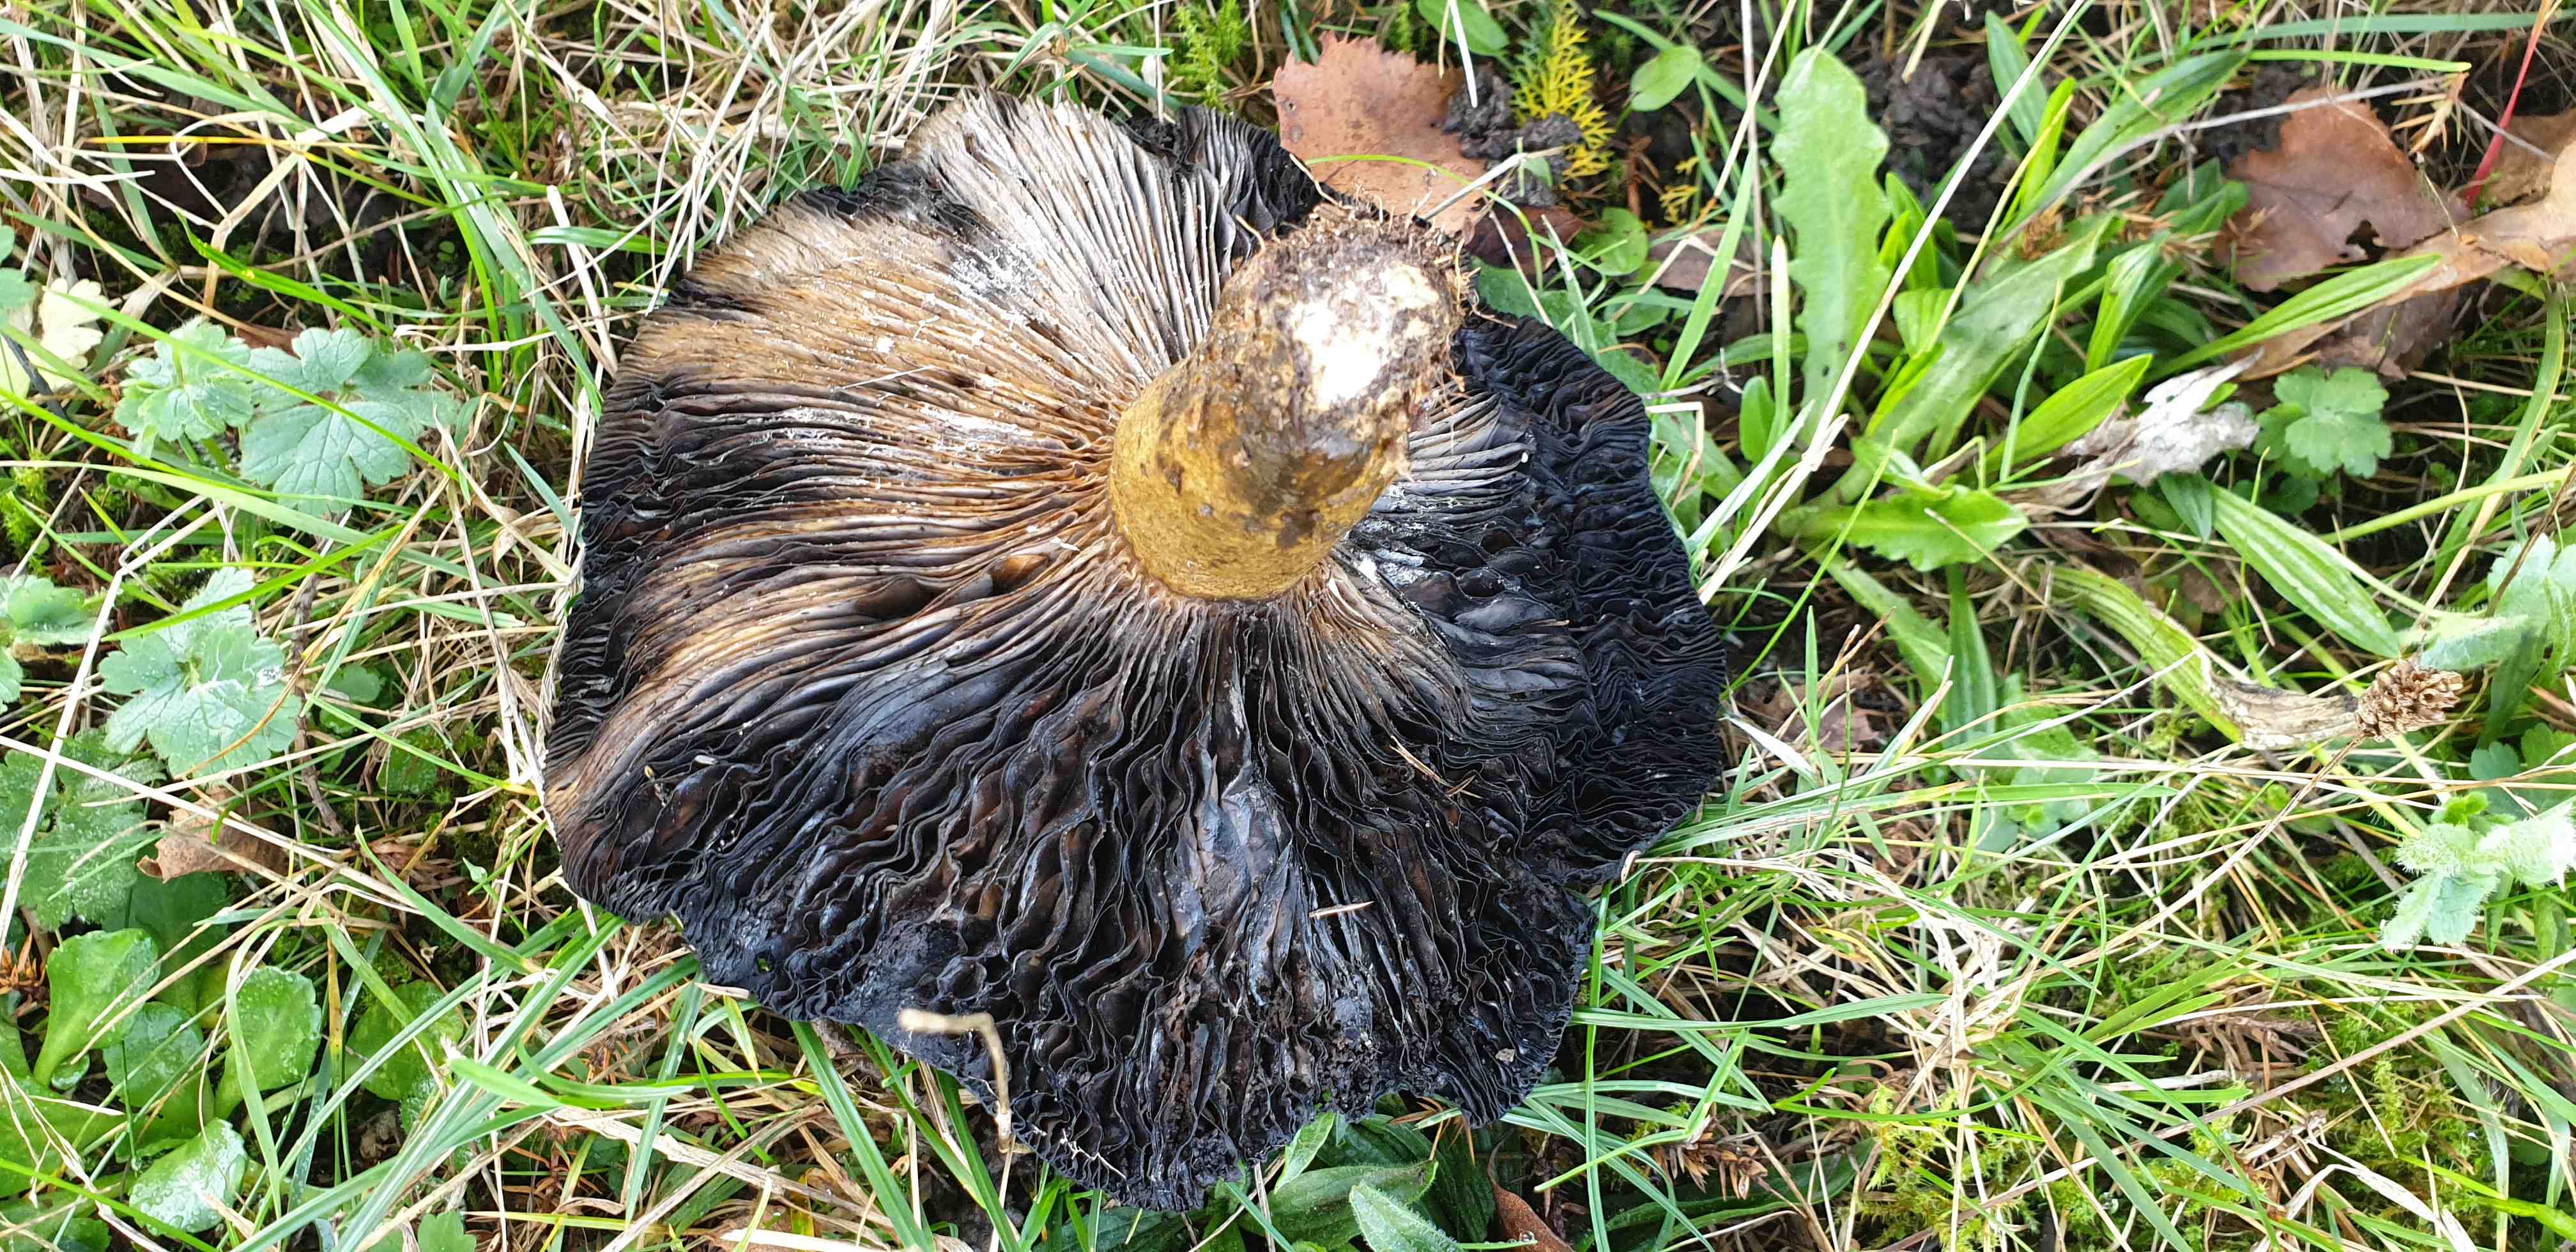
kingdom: Fungi
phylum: Basidiomycota
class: Agaricomycetes
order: Russulales
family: Russulaceae
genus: Lactarius
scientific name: Lactarius necator
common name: manddraber-mælkehat
